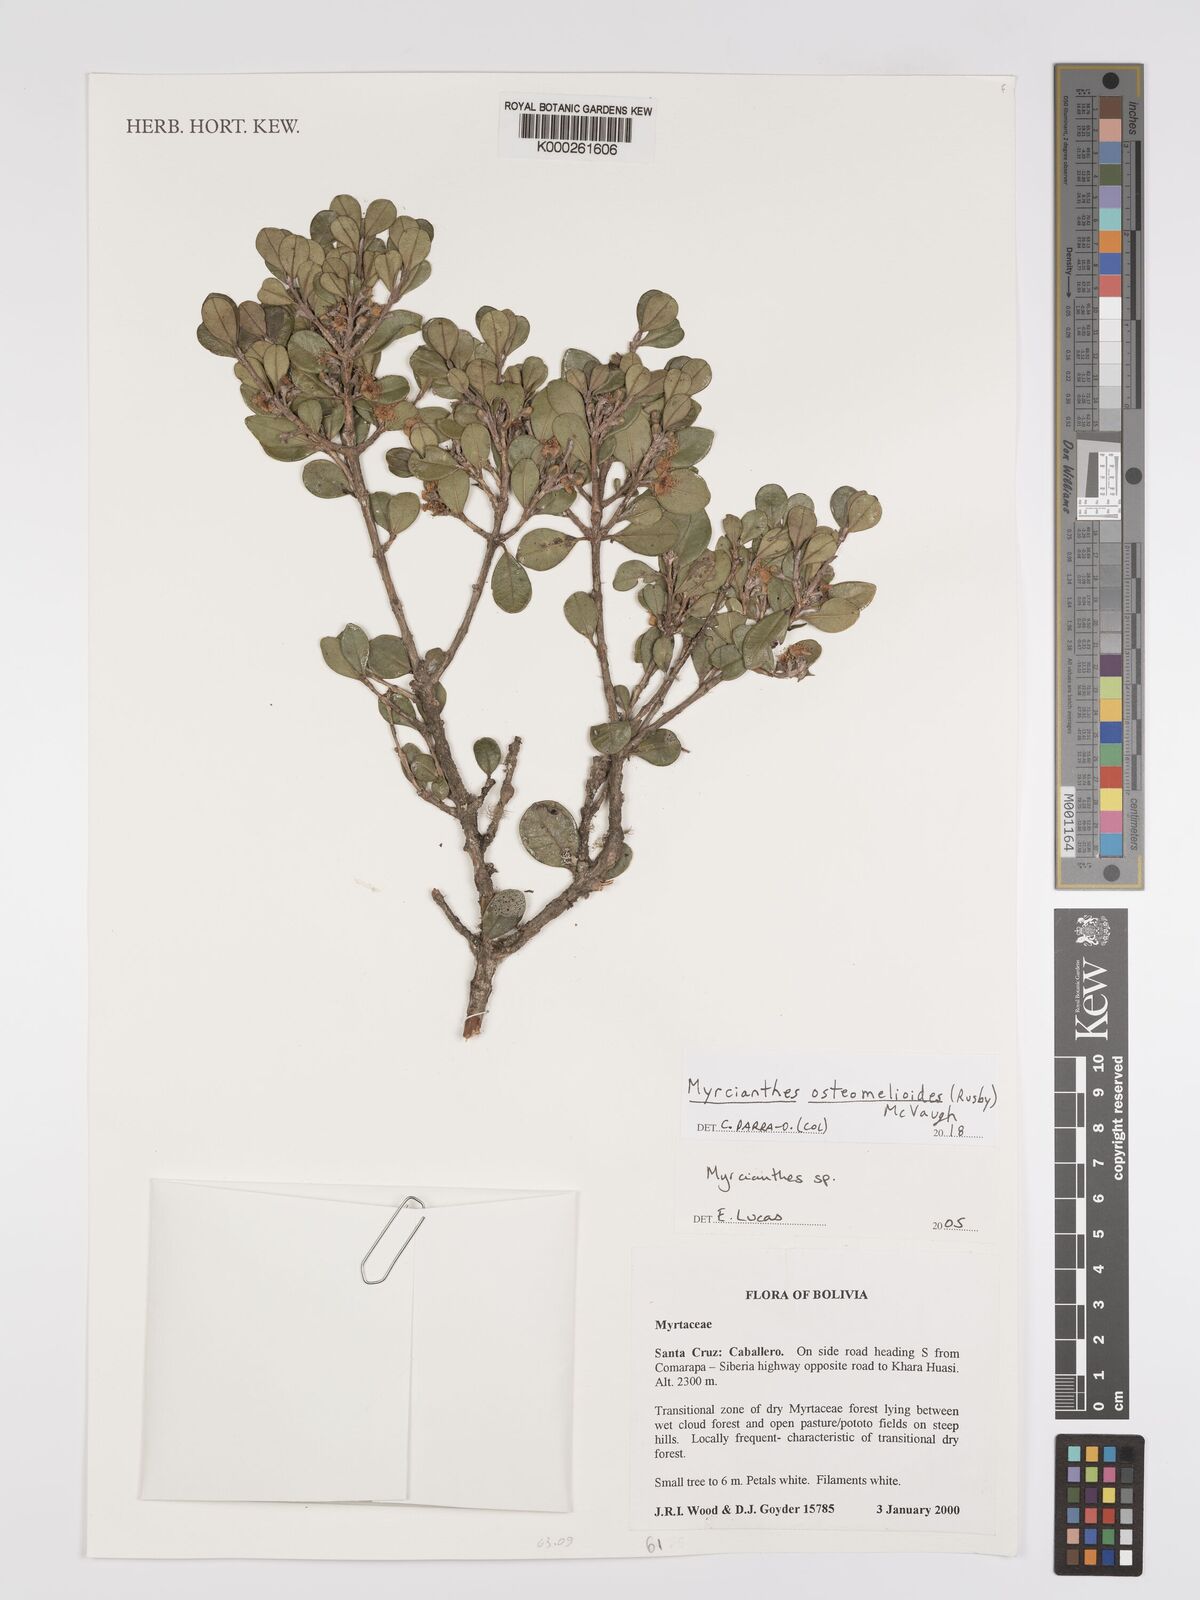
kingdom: Plantae
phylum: Tracheophyta
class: Magnoliopsida
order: Myrtales
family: Myrtaceae
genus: Myrcianthes
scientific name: Myrcianthes
